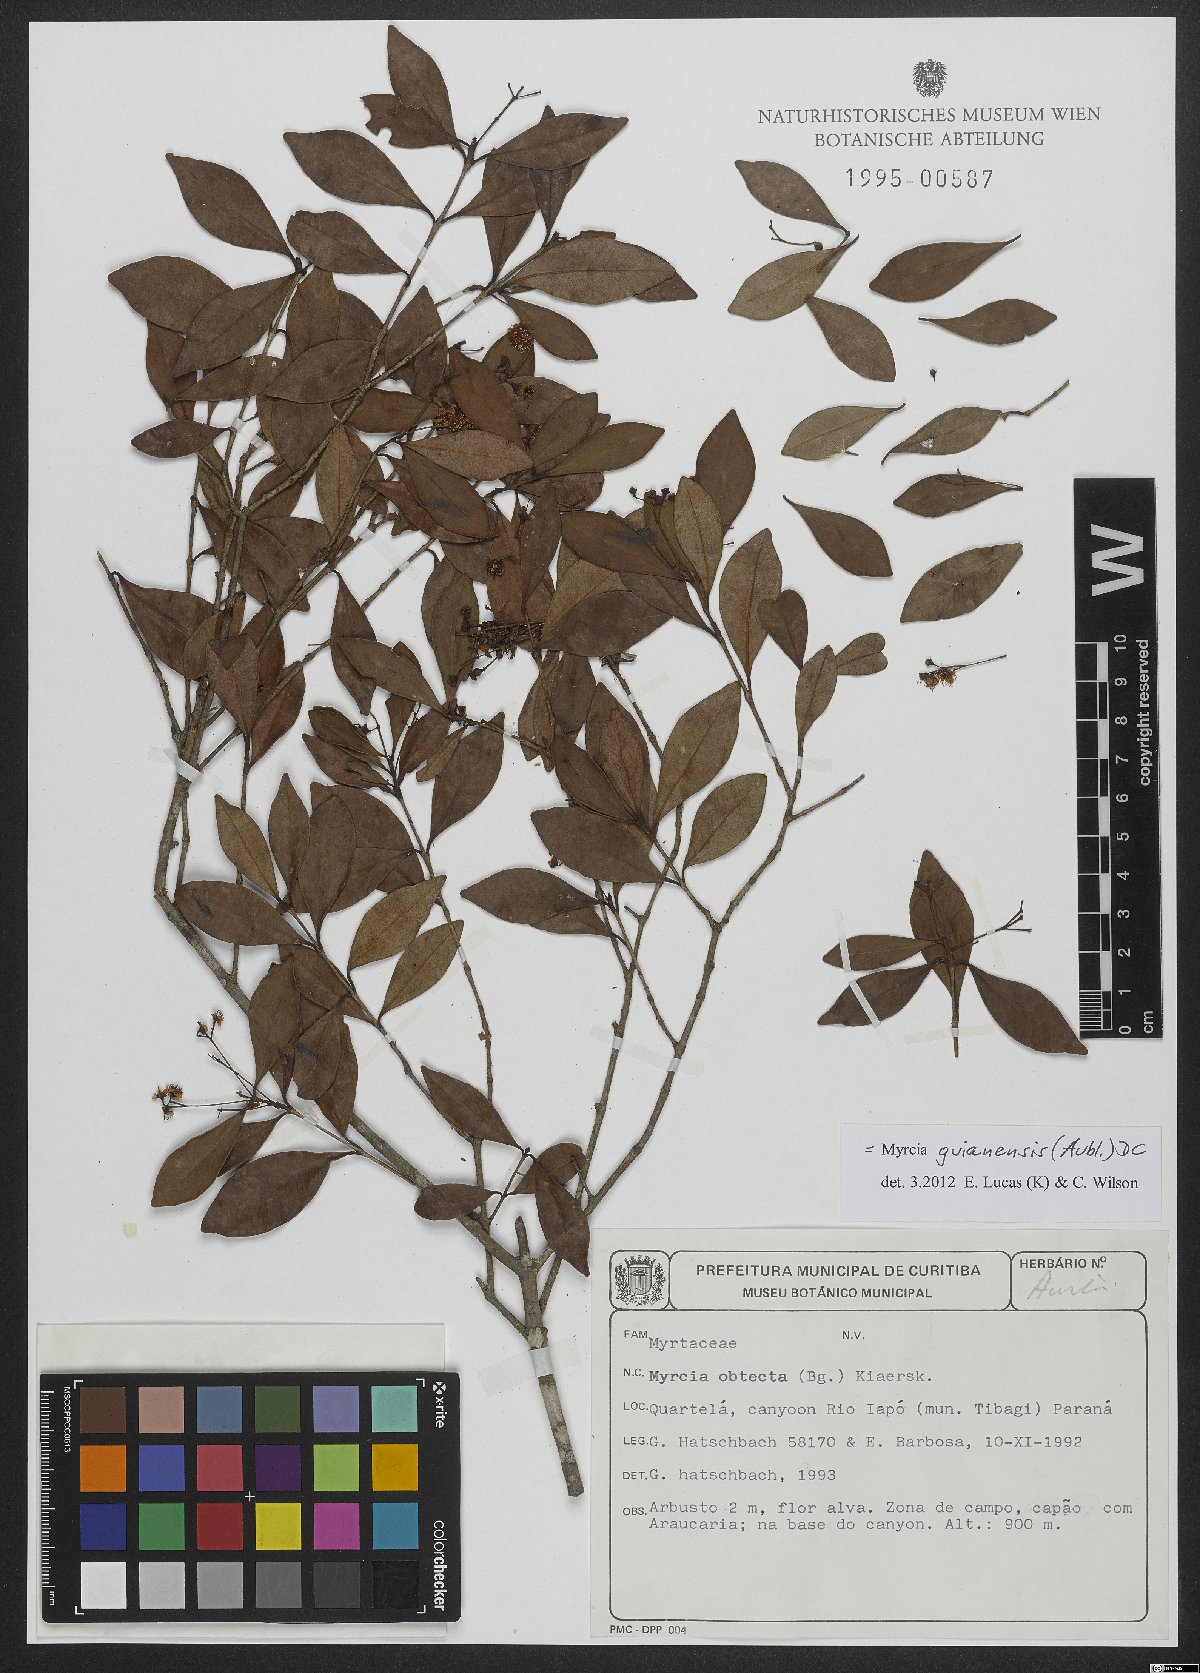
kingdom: Plantae
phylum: Tracheophyta
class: Magnoliopsida
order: Myrtales
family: Myrtaceae
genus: Myrcia
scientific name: Myrcia guianensis
